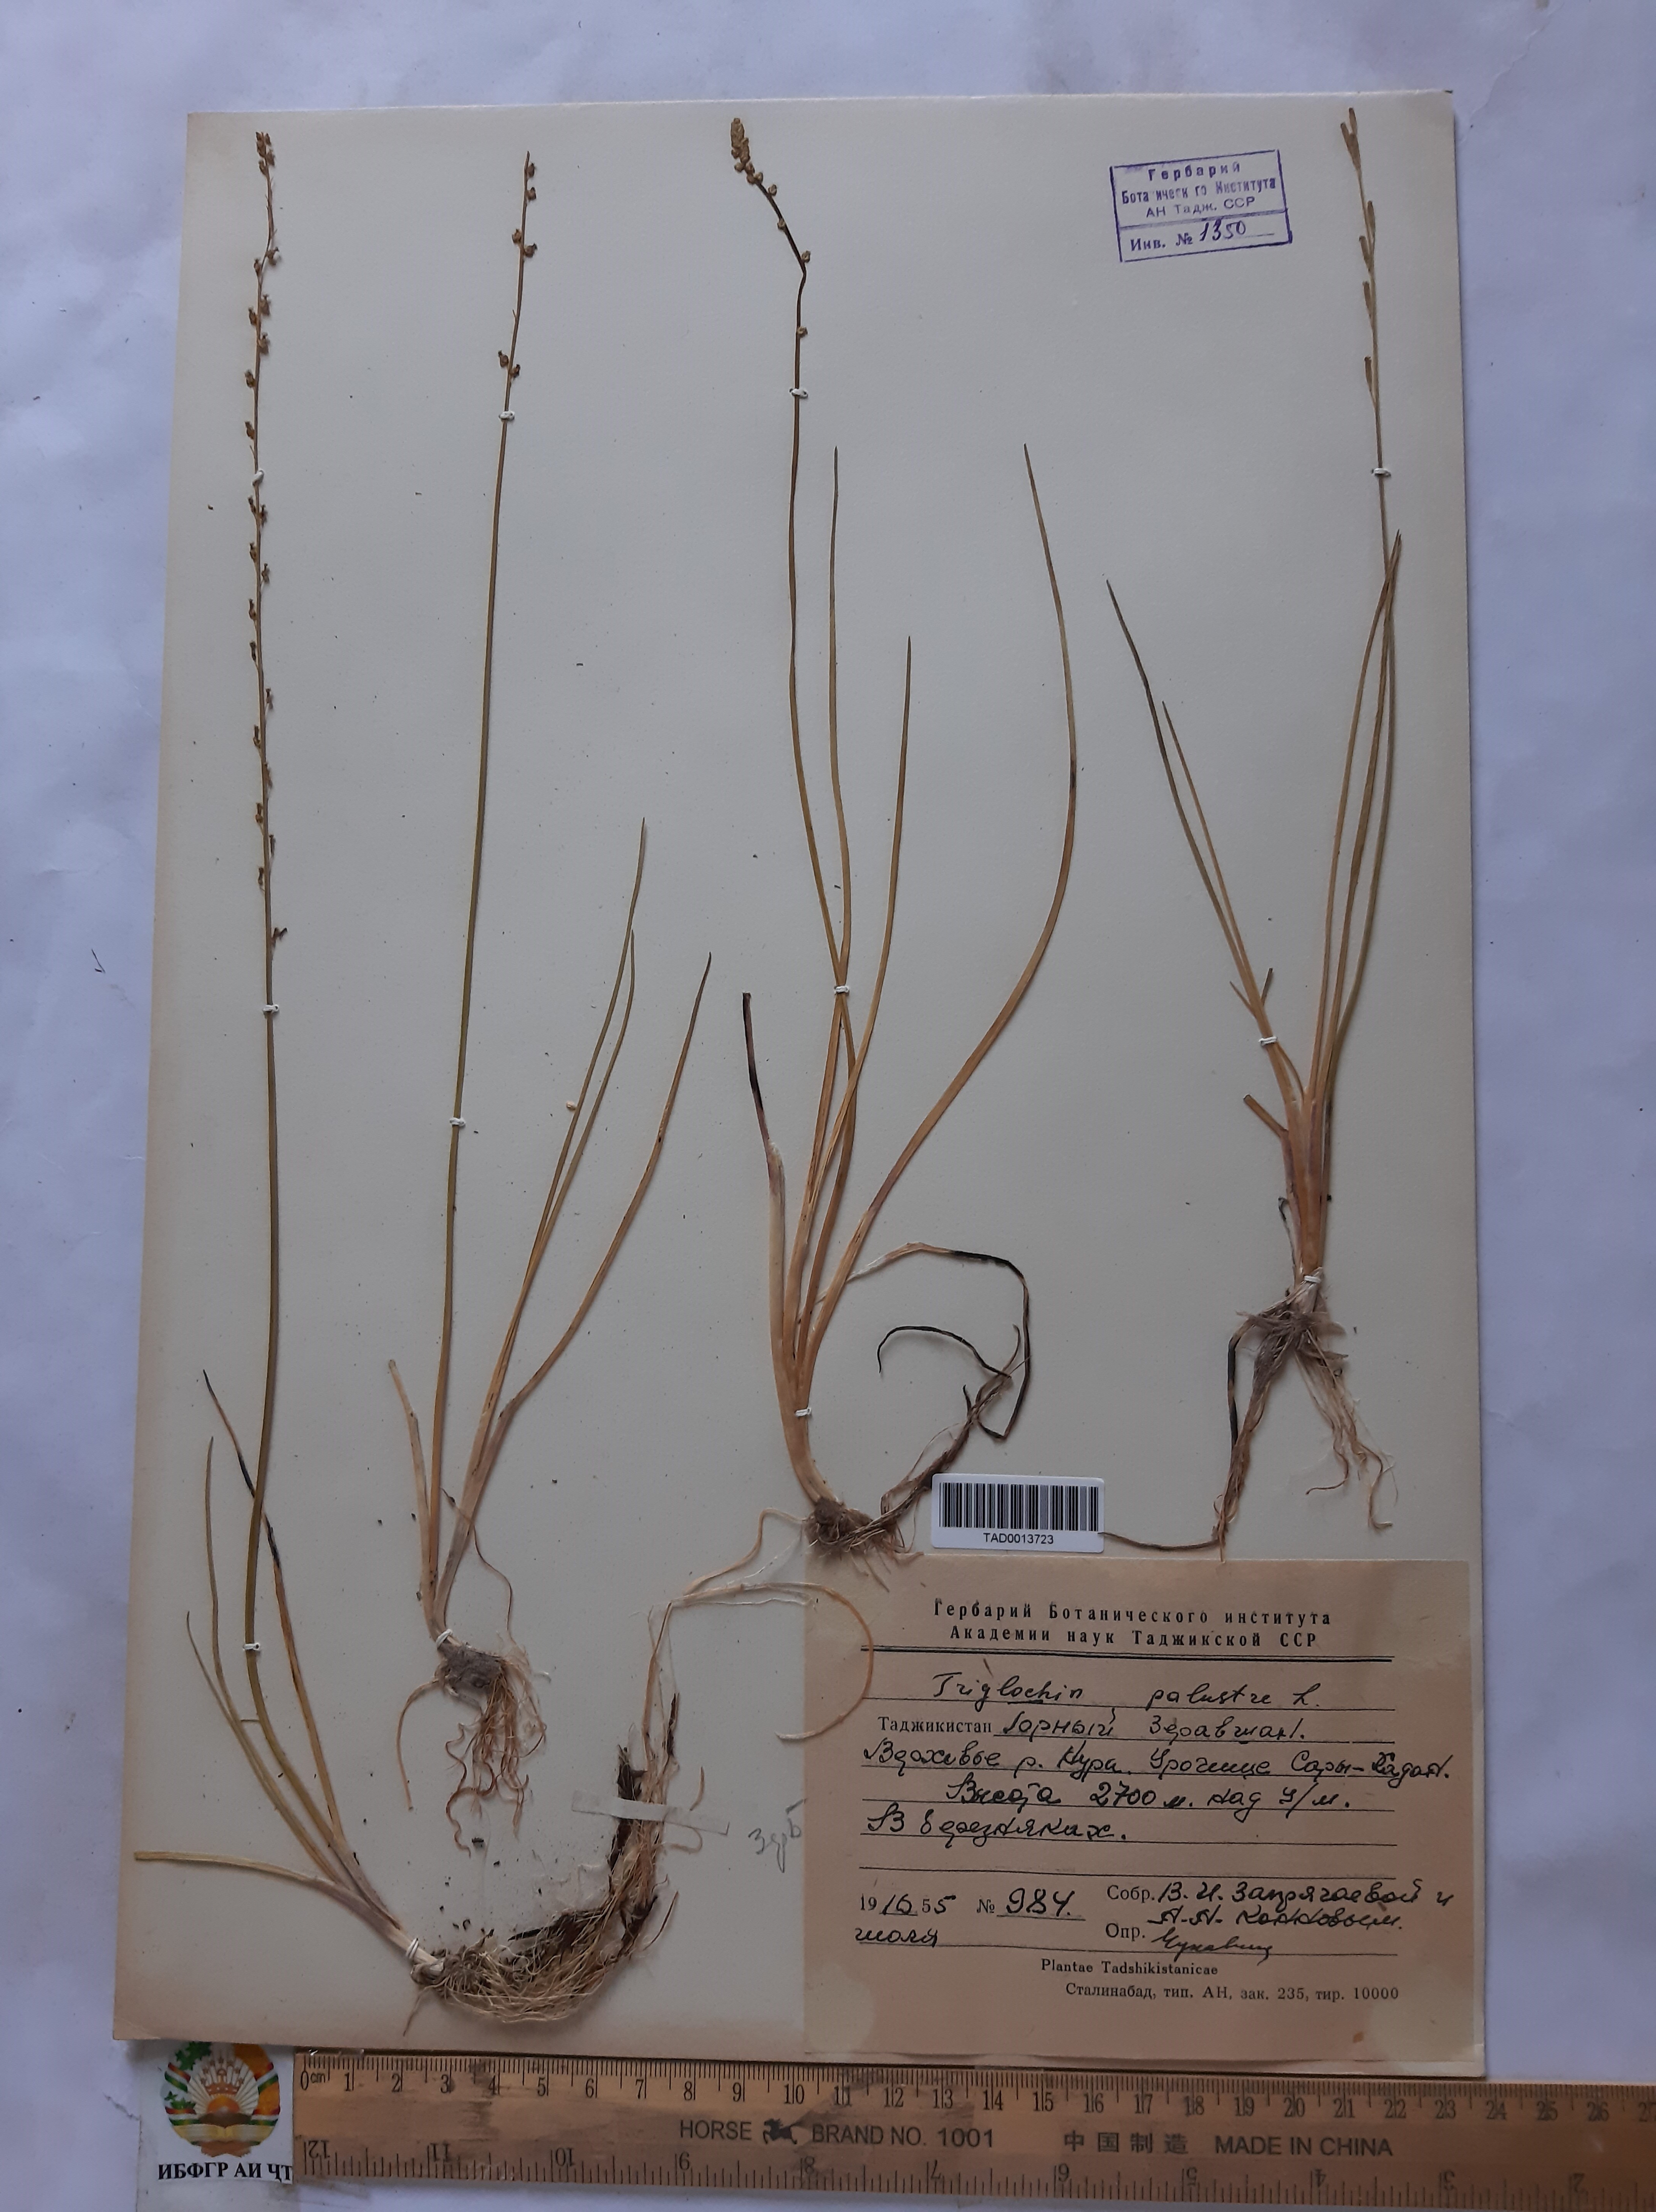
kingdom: Plantae
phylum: Tracheophyta
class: Liliopsida
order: Alismatales
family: Juncaginaceae
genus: Triglochin
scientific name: Triglochin palustris
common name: Marsh arrowgrass
